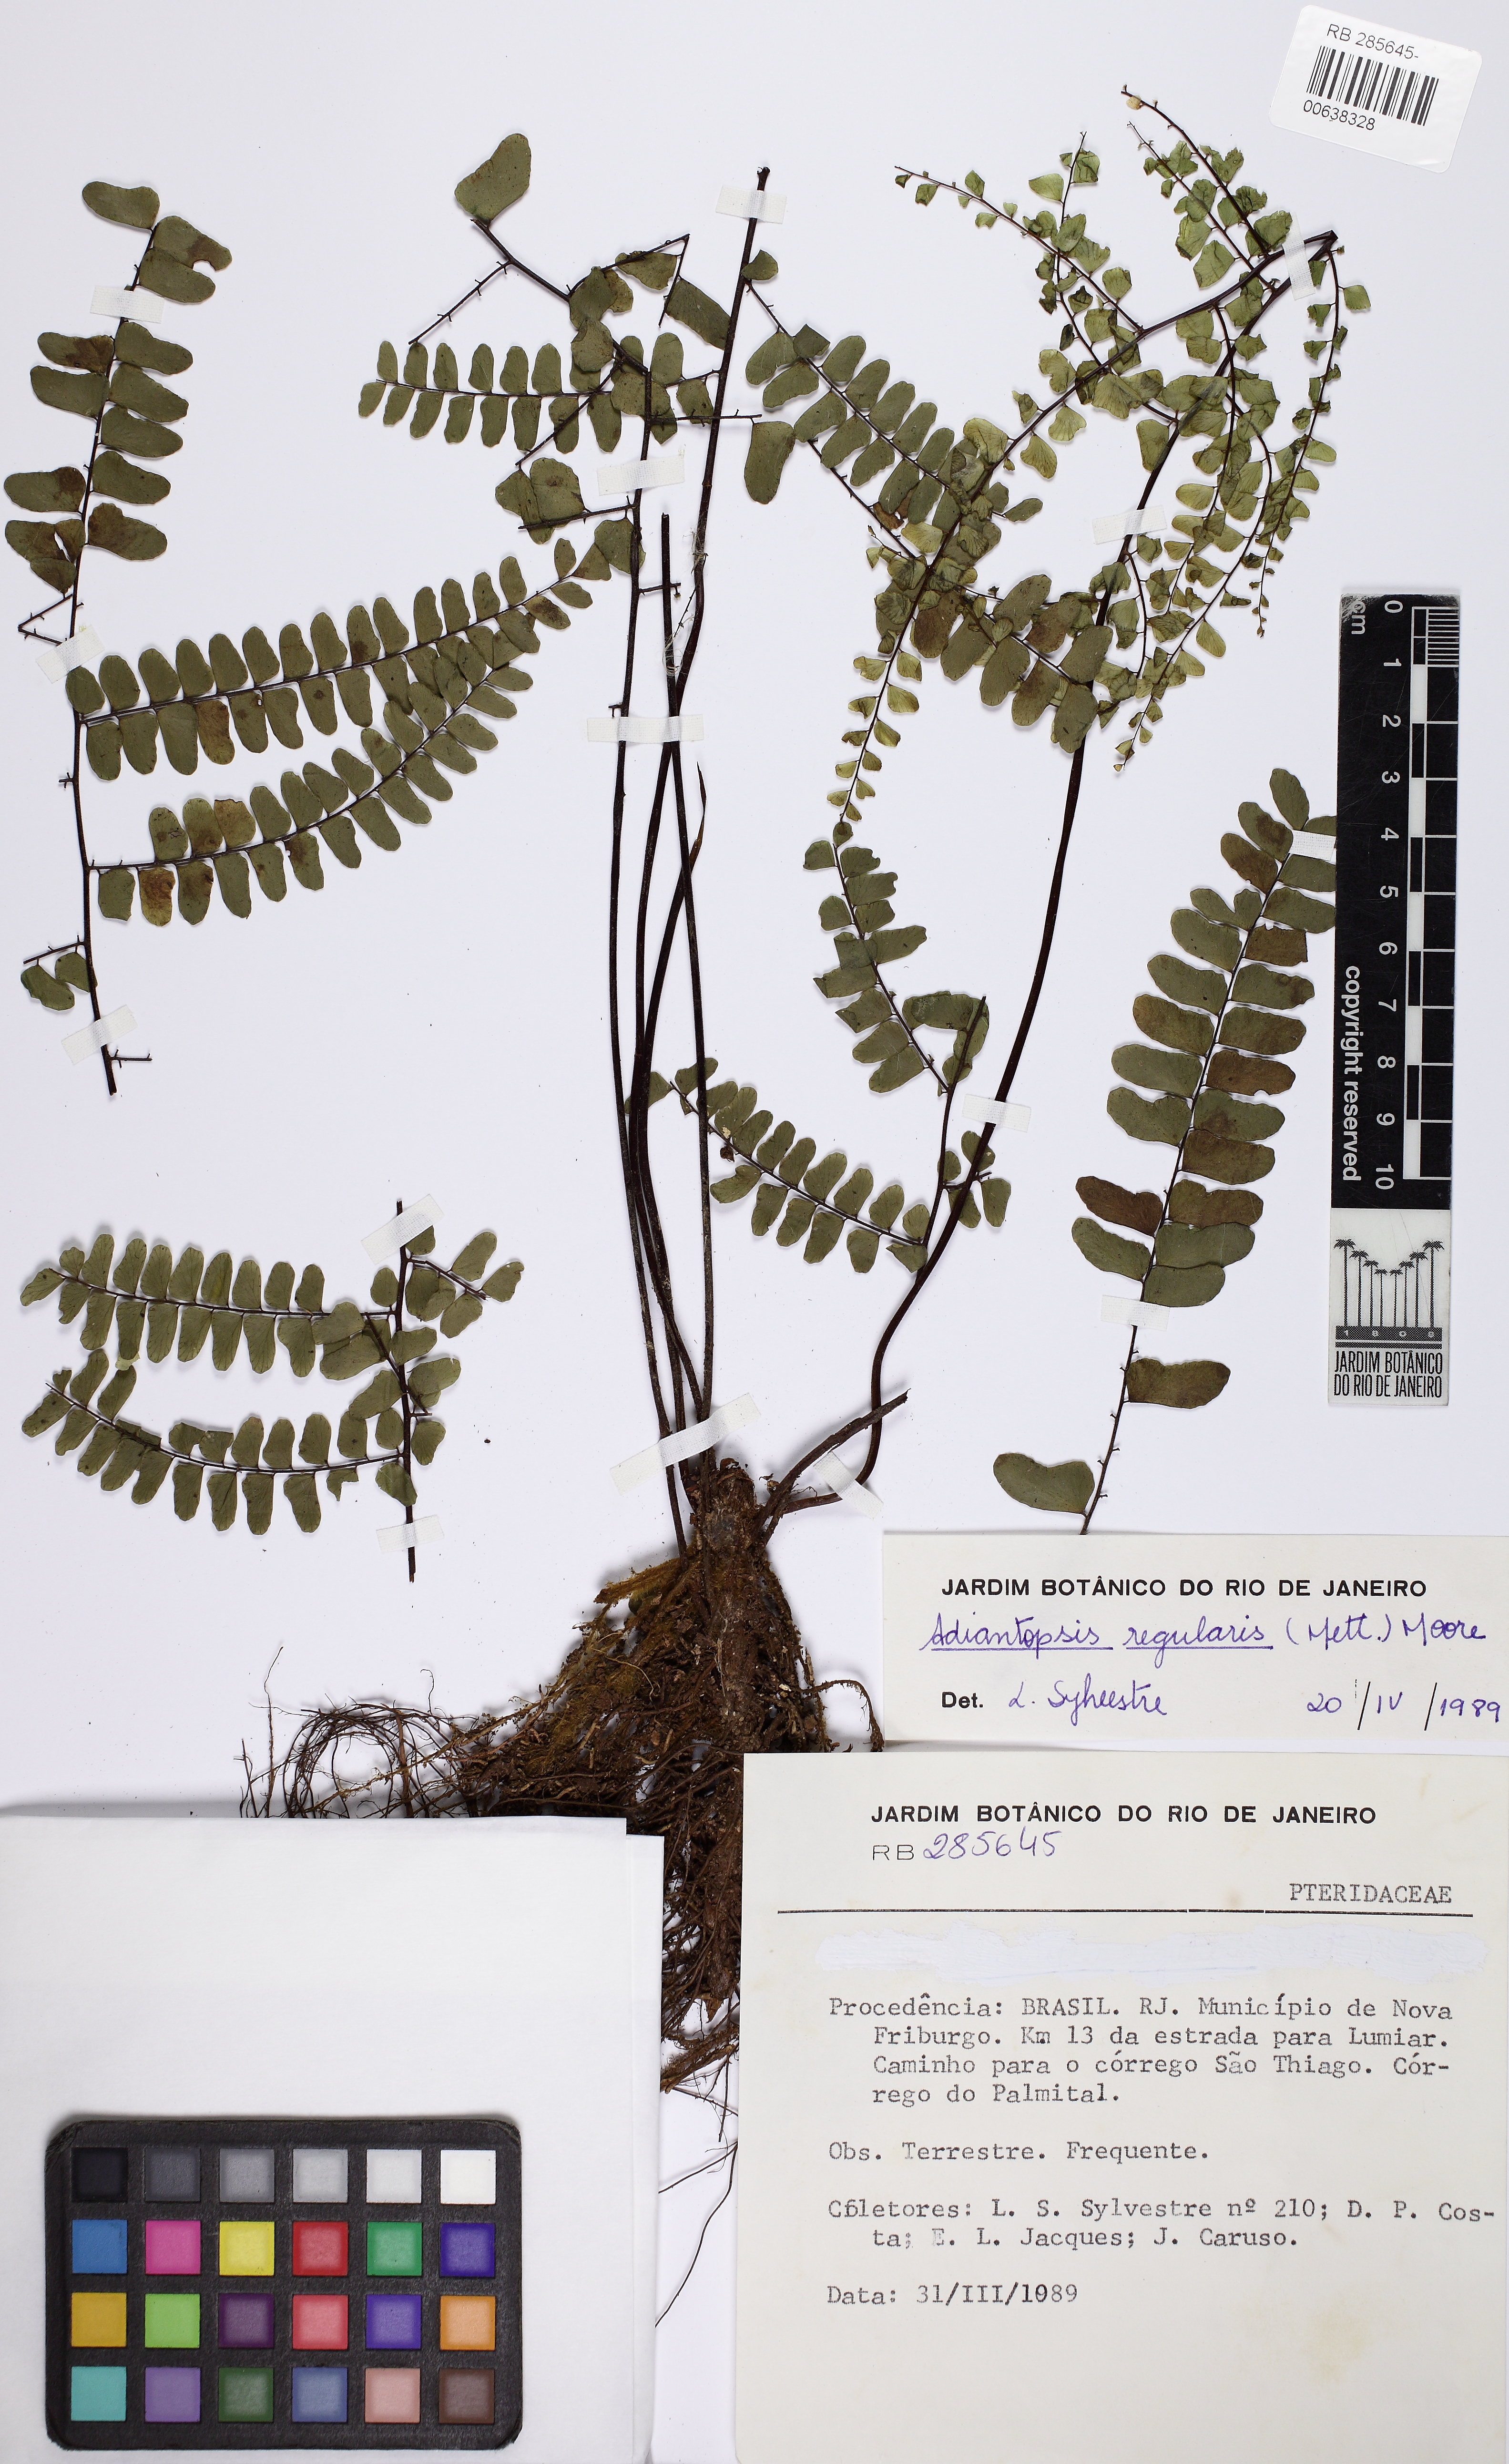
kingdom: Plantae
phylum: Tracheophyta
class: Polypodiopsida
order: Polypodiales
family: Pteridaceae
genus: Adiantopsis
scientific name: Adiantopsis regularis
